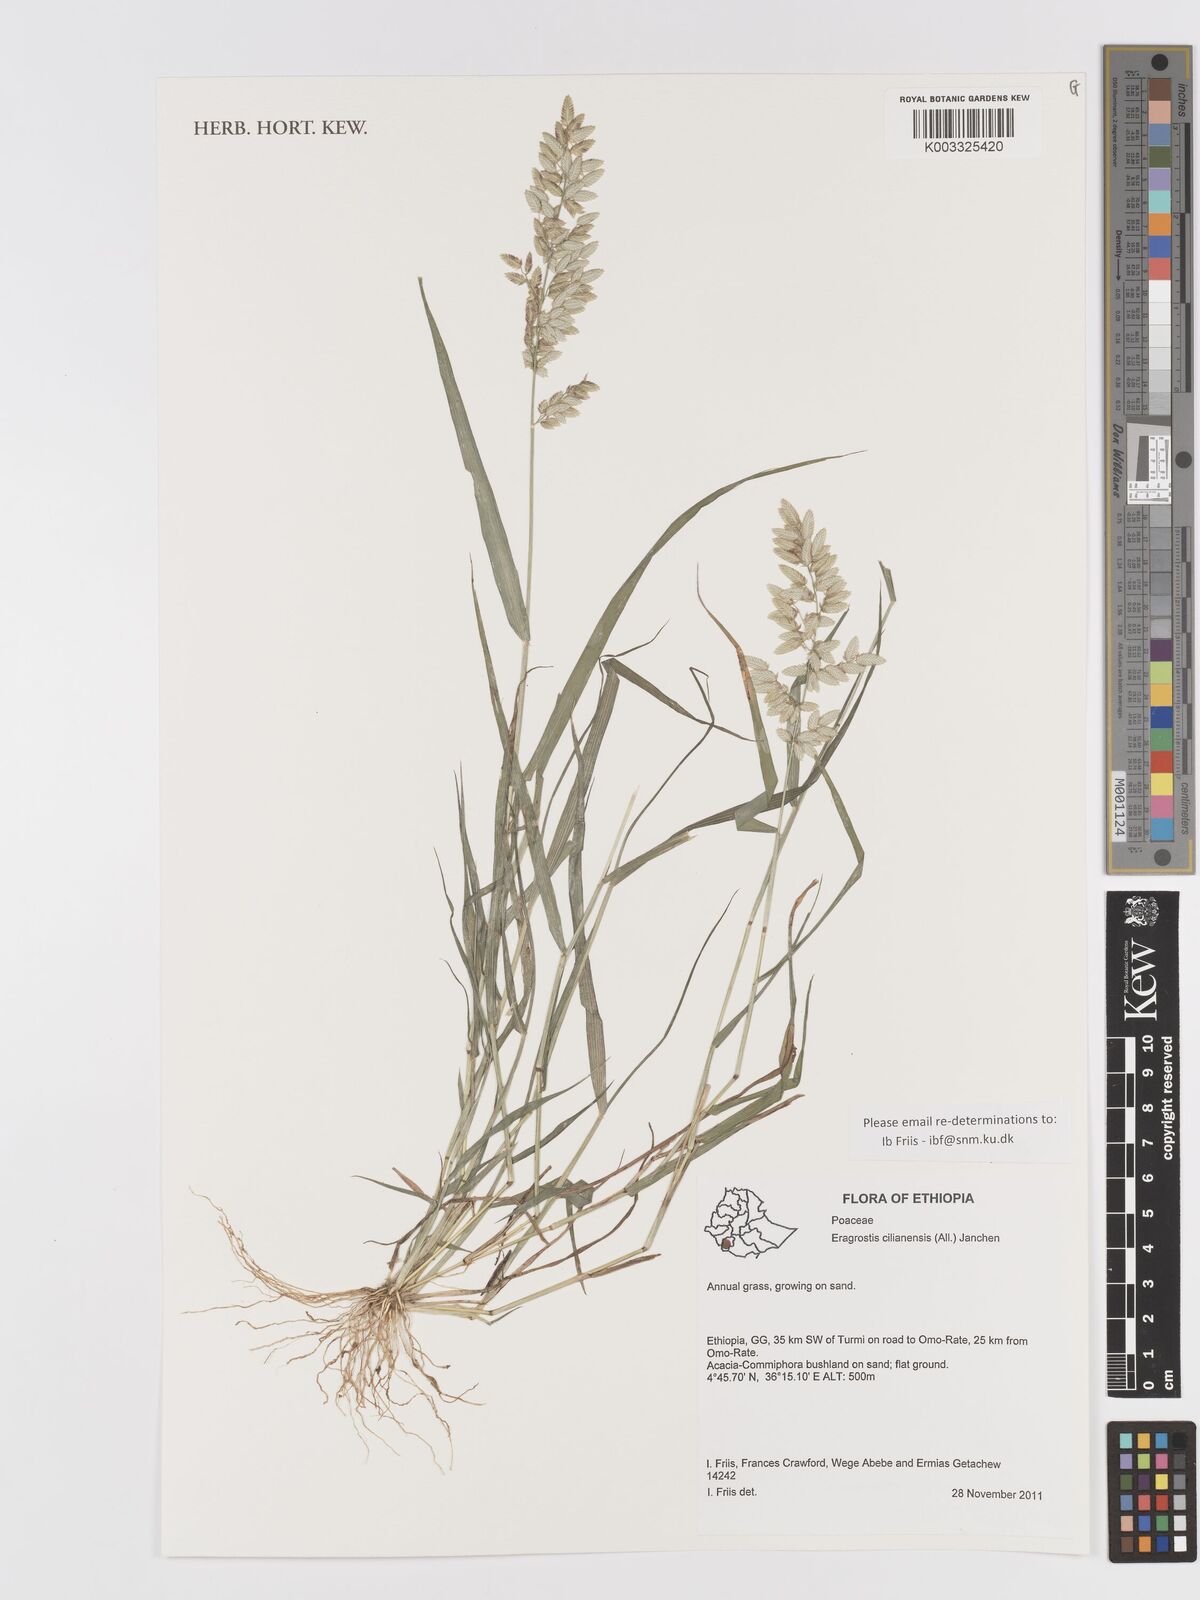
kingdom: Plantae
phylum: Tracheophyta
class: Liliopsida
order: Poales
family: Poaceae
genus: Eragrostis
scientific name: Eragrostis cilianensis
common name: Stinkgrass
